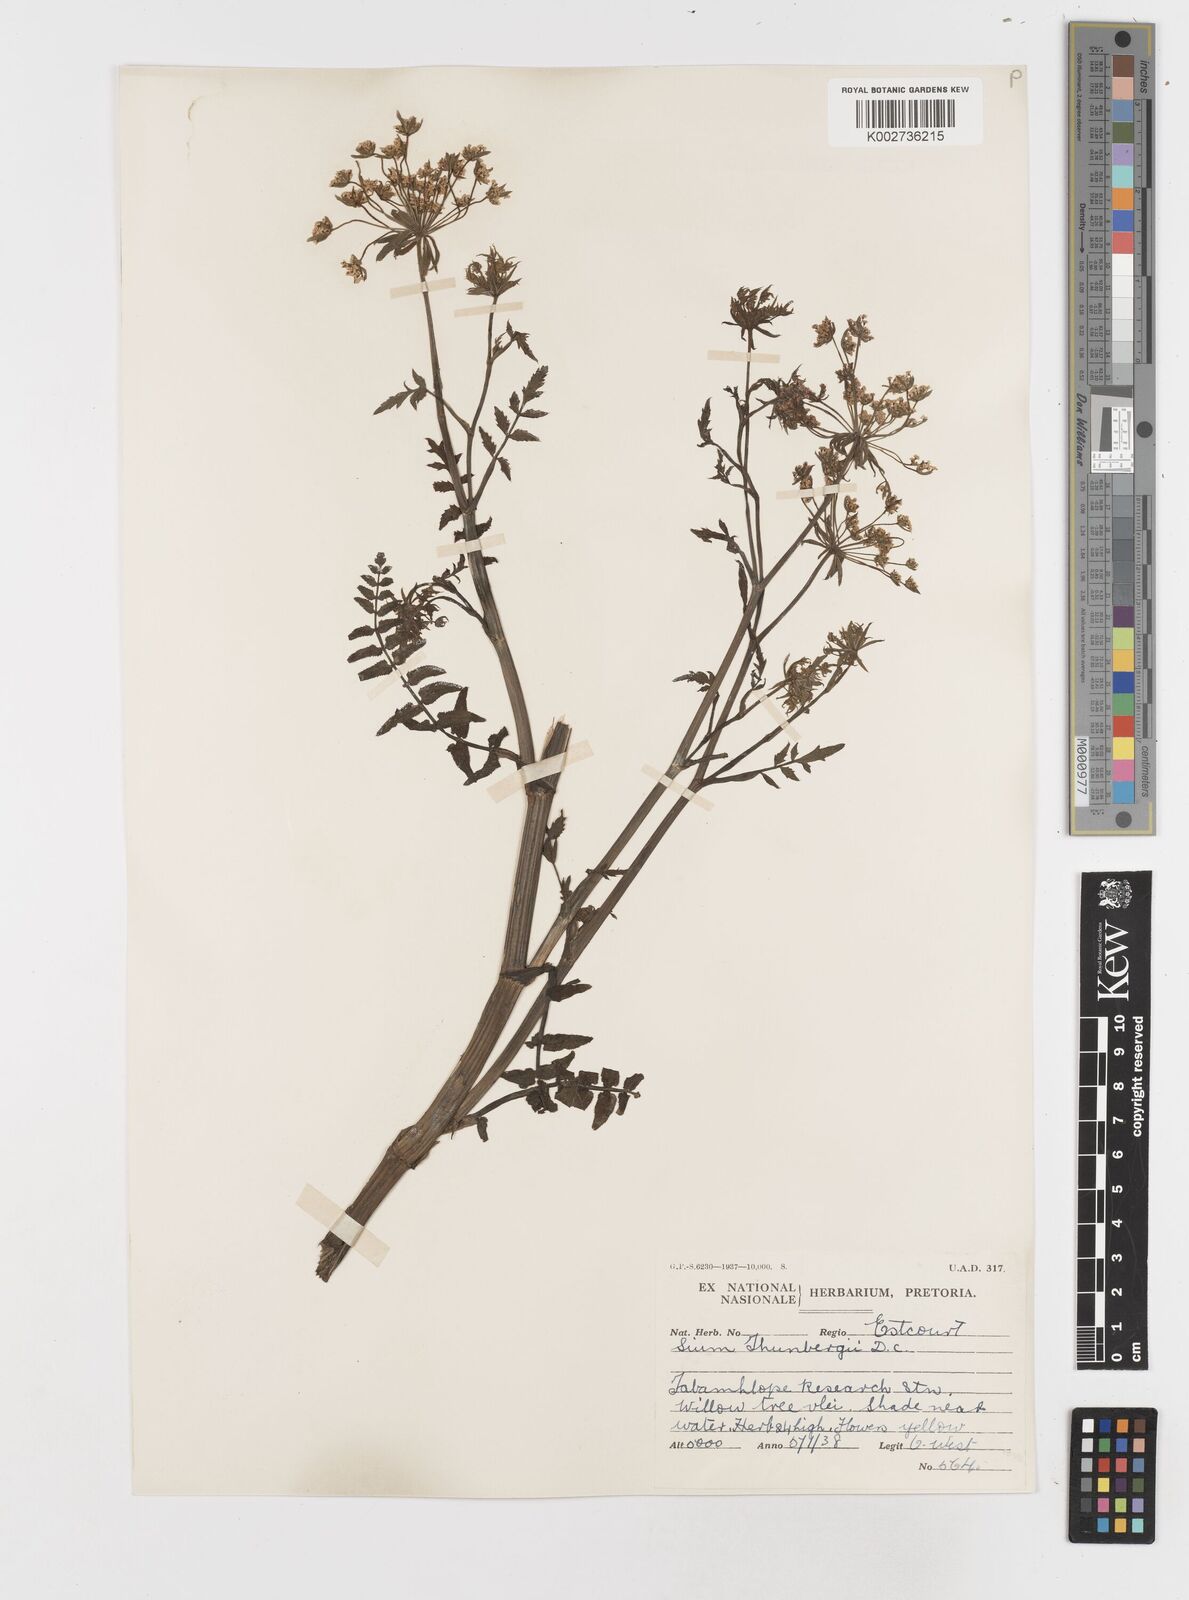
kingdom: Plantae
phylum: Tracheophyta
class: Magnoliopsida
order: Apiales
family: Apiaceae
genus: Berula
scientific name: Berula erecta
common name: Lesser water-parsnip
